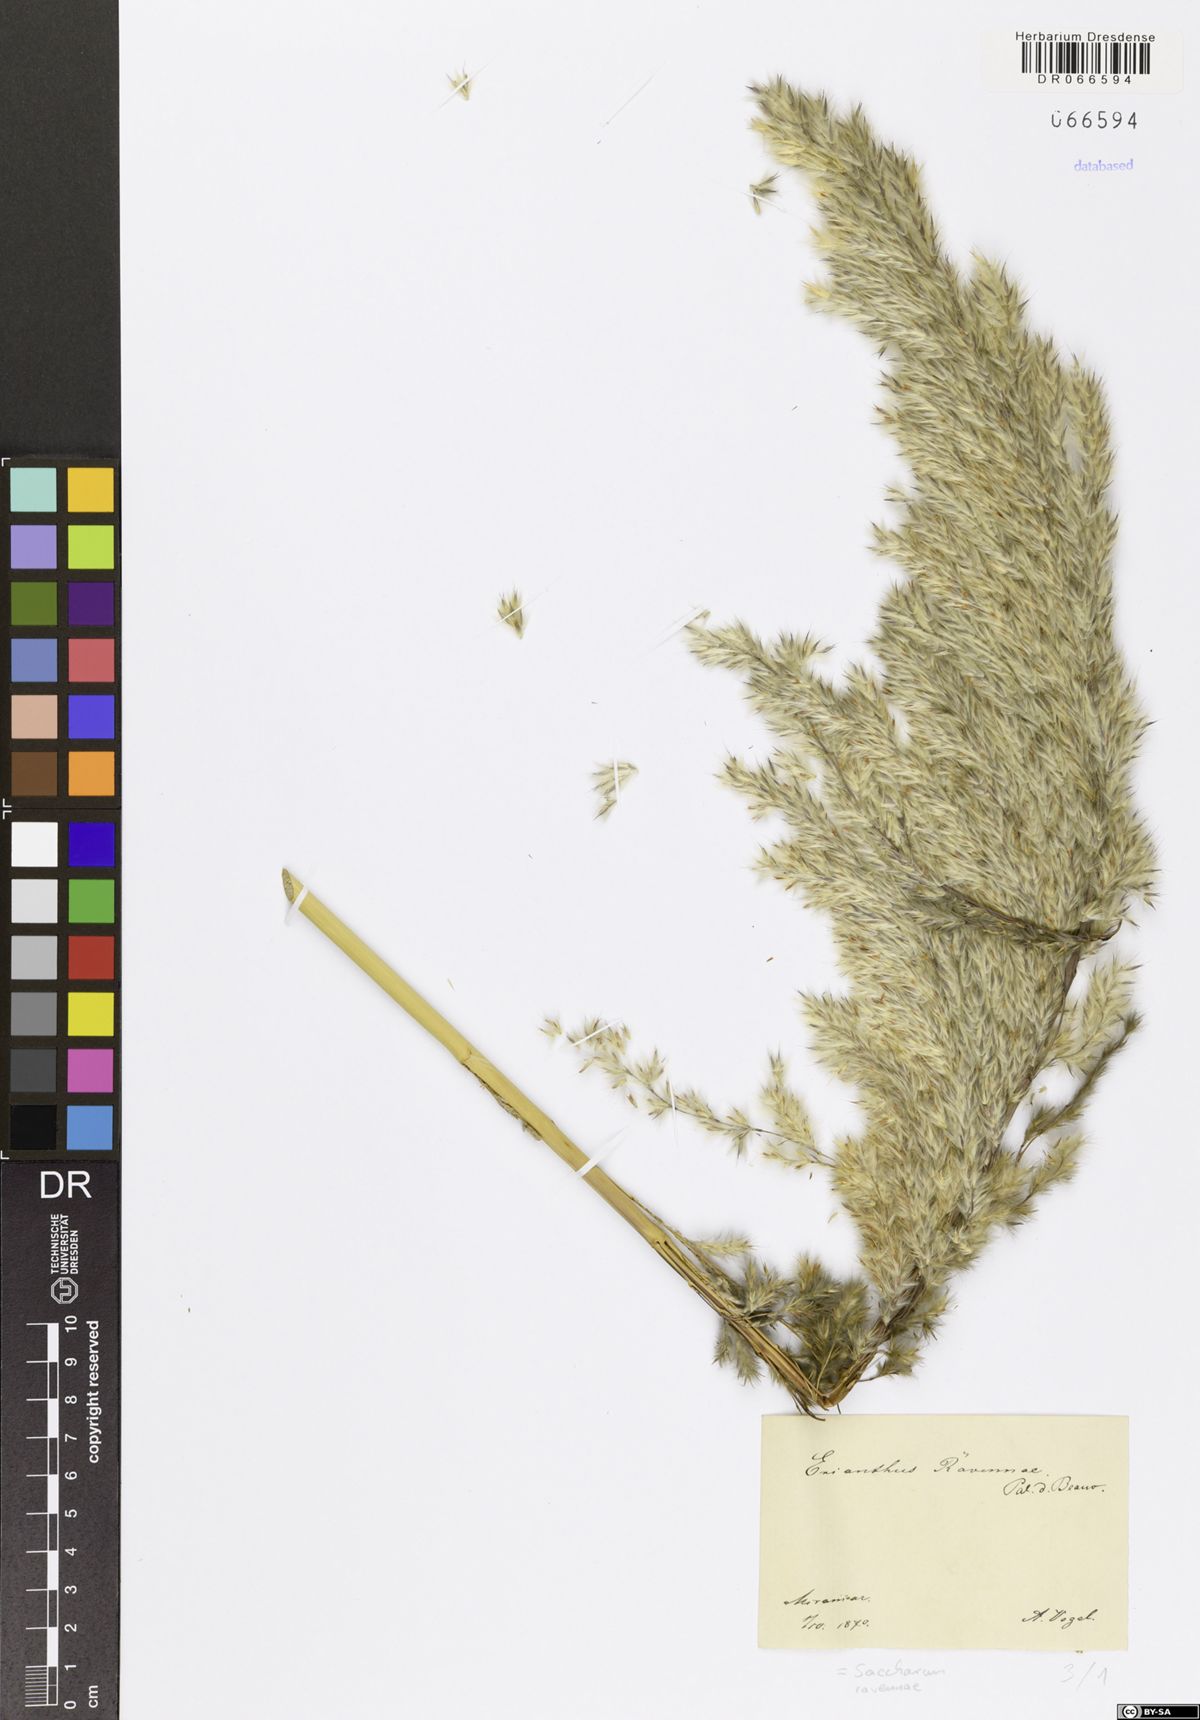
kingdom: Plantae
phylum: Tracheophyta
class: Liliopsida
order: Poales
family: Poaceae
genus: Tripidium
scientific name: Tripidium ravennae
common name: Ravenna grass
